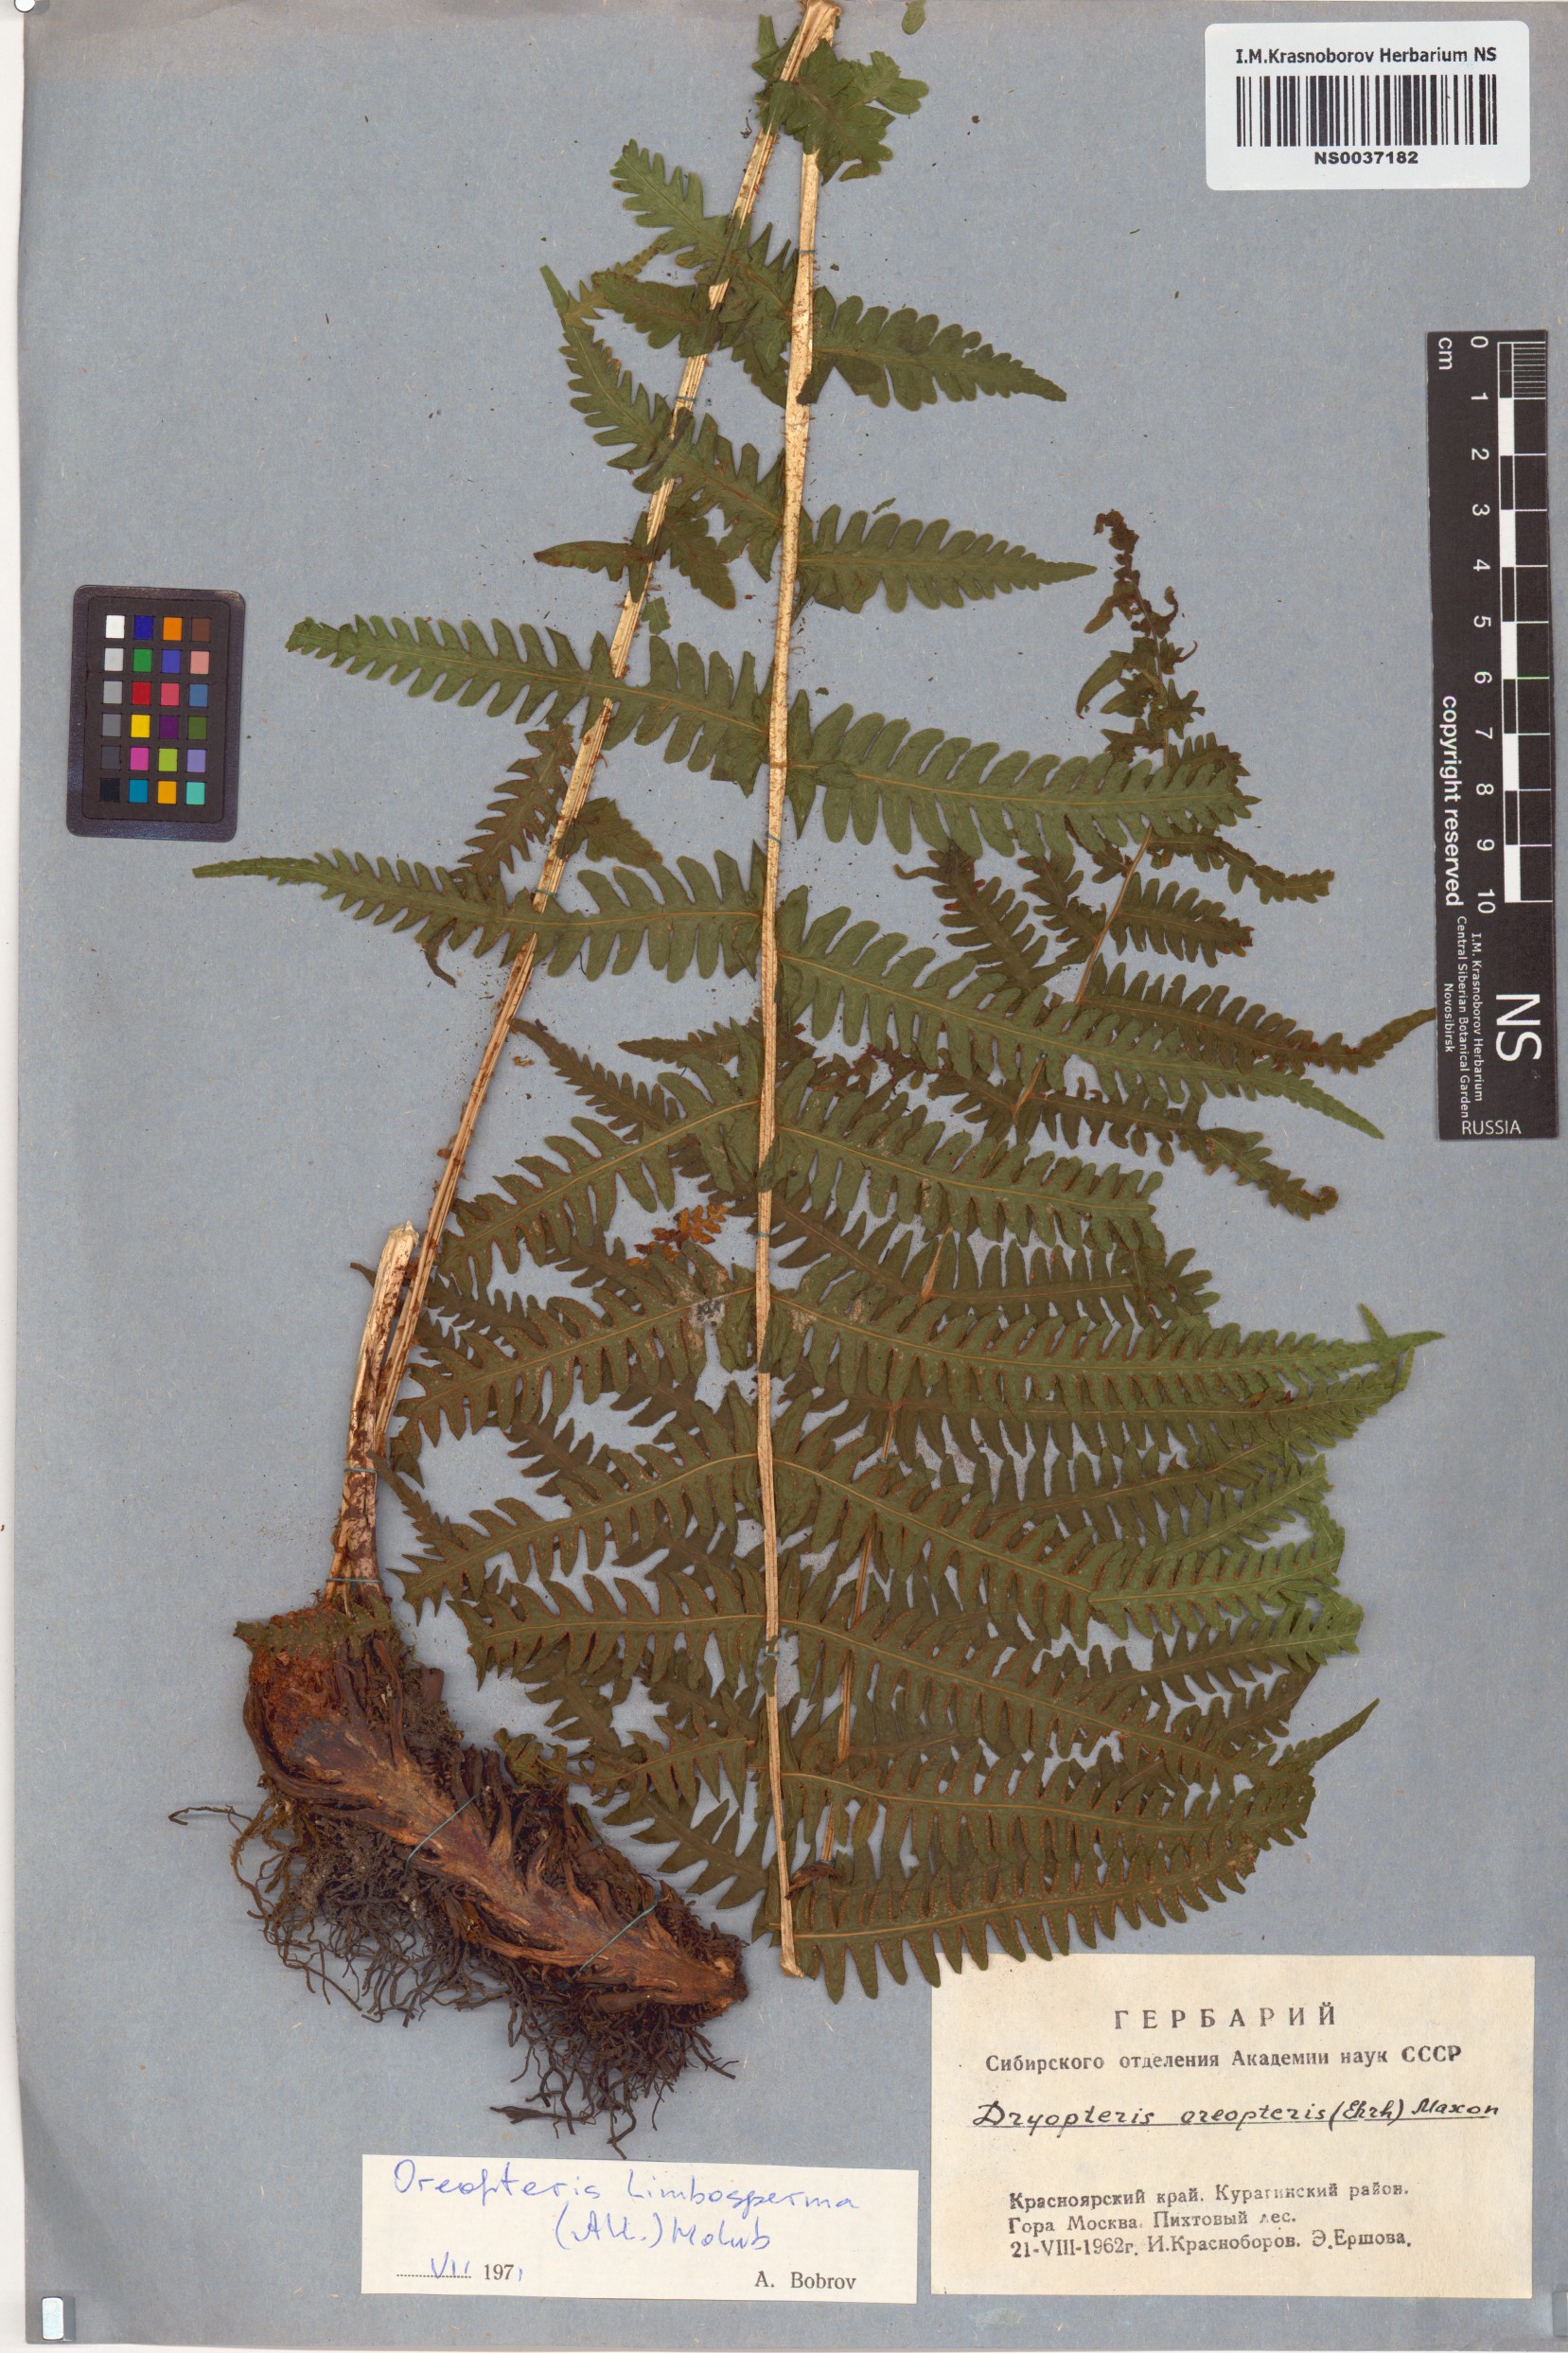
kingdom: Plantae
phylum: Tracheophyta
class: Polypodiopsida
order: Polypodiales
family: Thelypteridaceae
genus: Oreopteris
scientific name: Oreopteris limbosperma
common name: Lemon-scented fern
